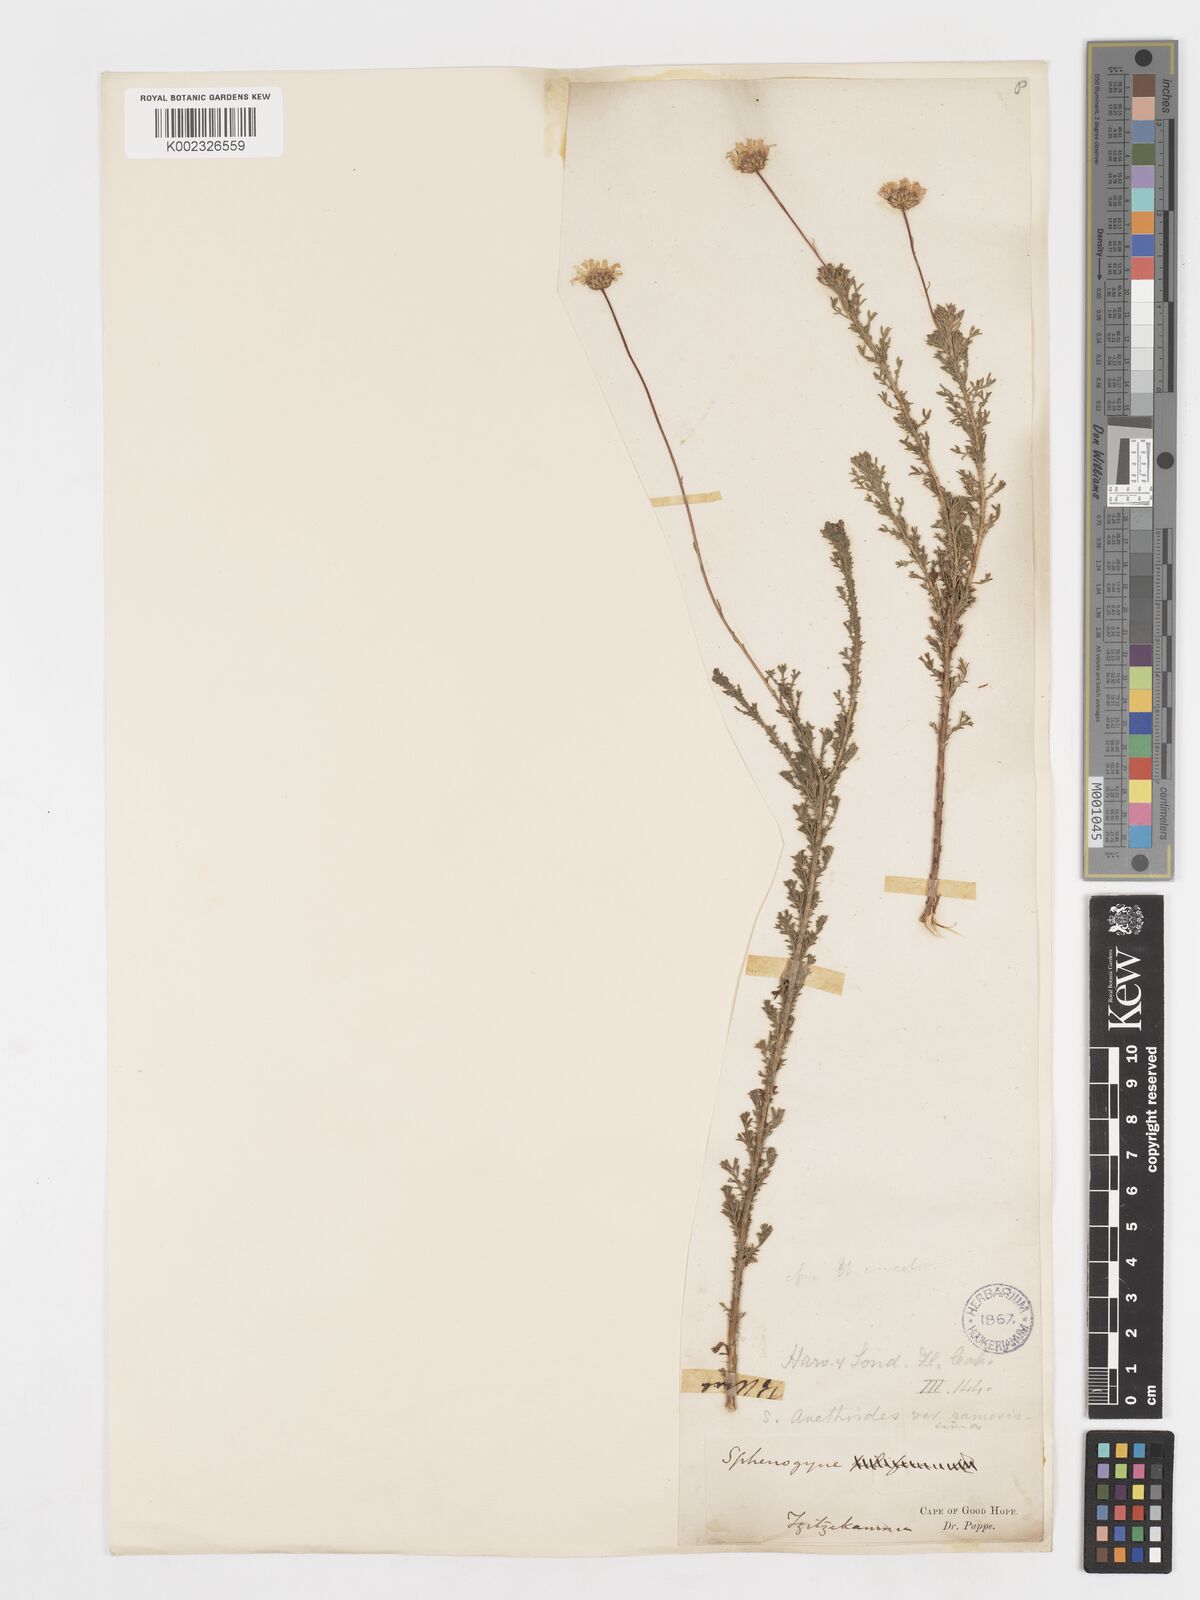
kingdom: Plantae
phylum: Tracheophyta
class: Magnoliopsida
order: Asterales
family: Asteraceae
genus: Ursinia
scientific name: Ursinia anethoides
